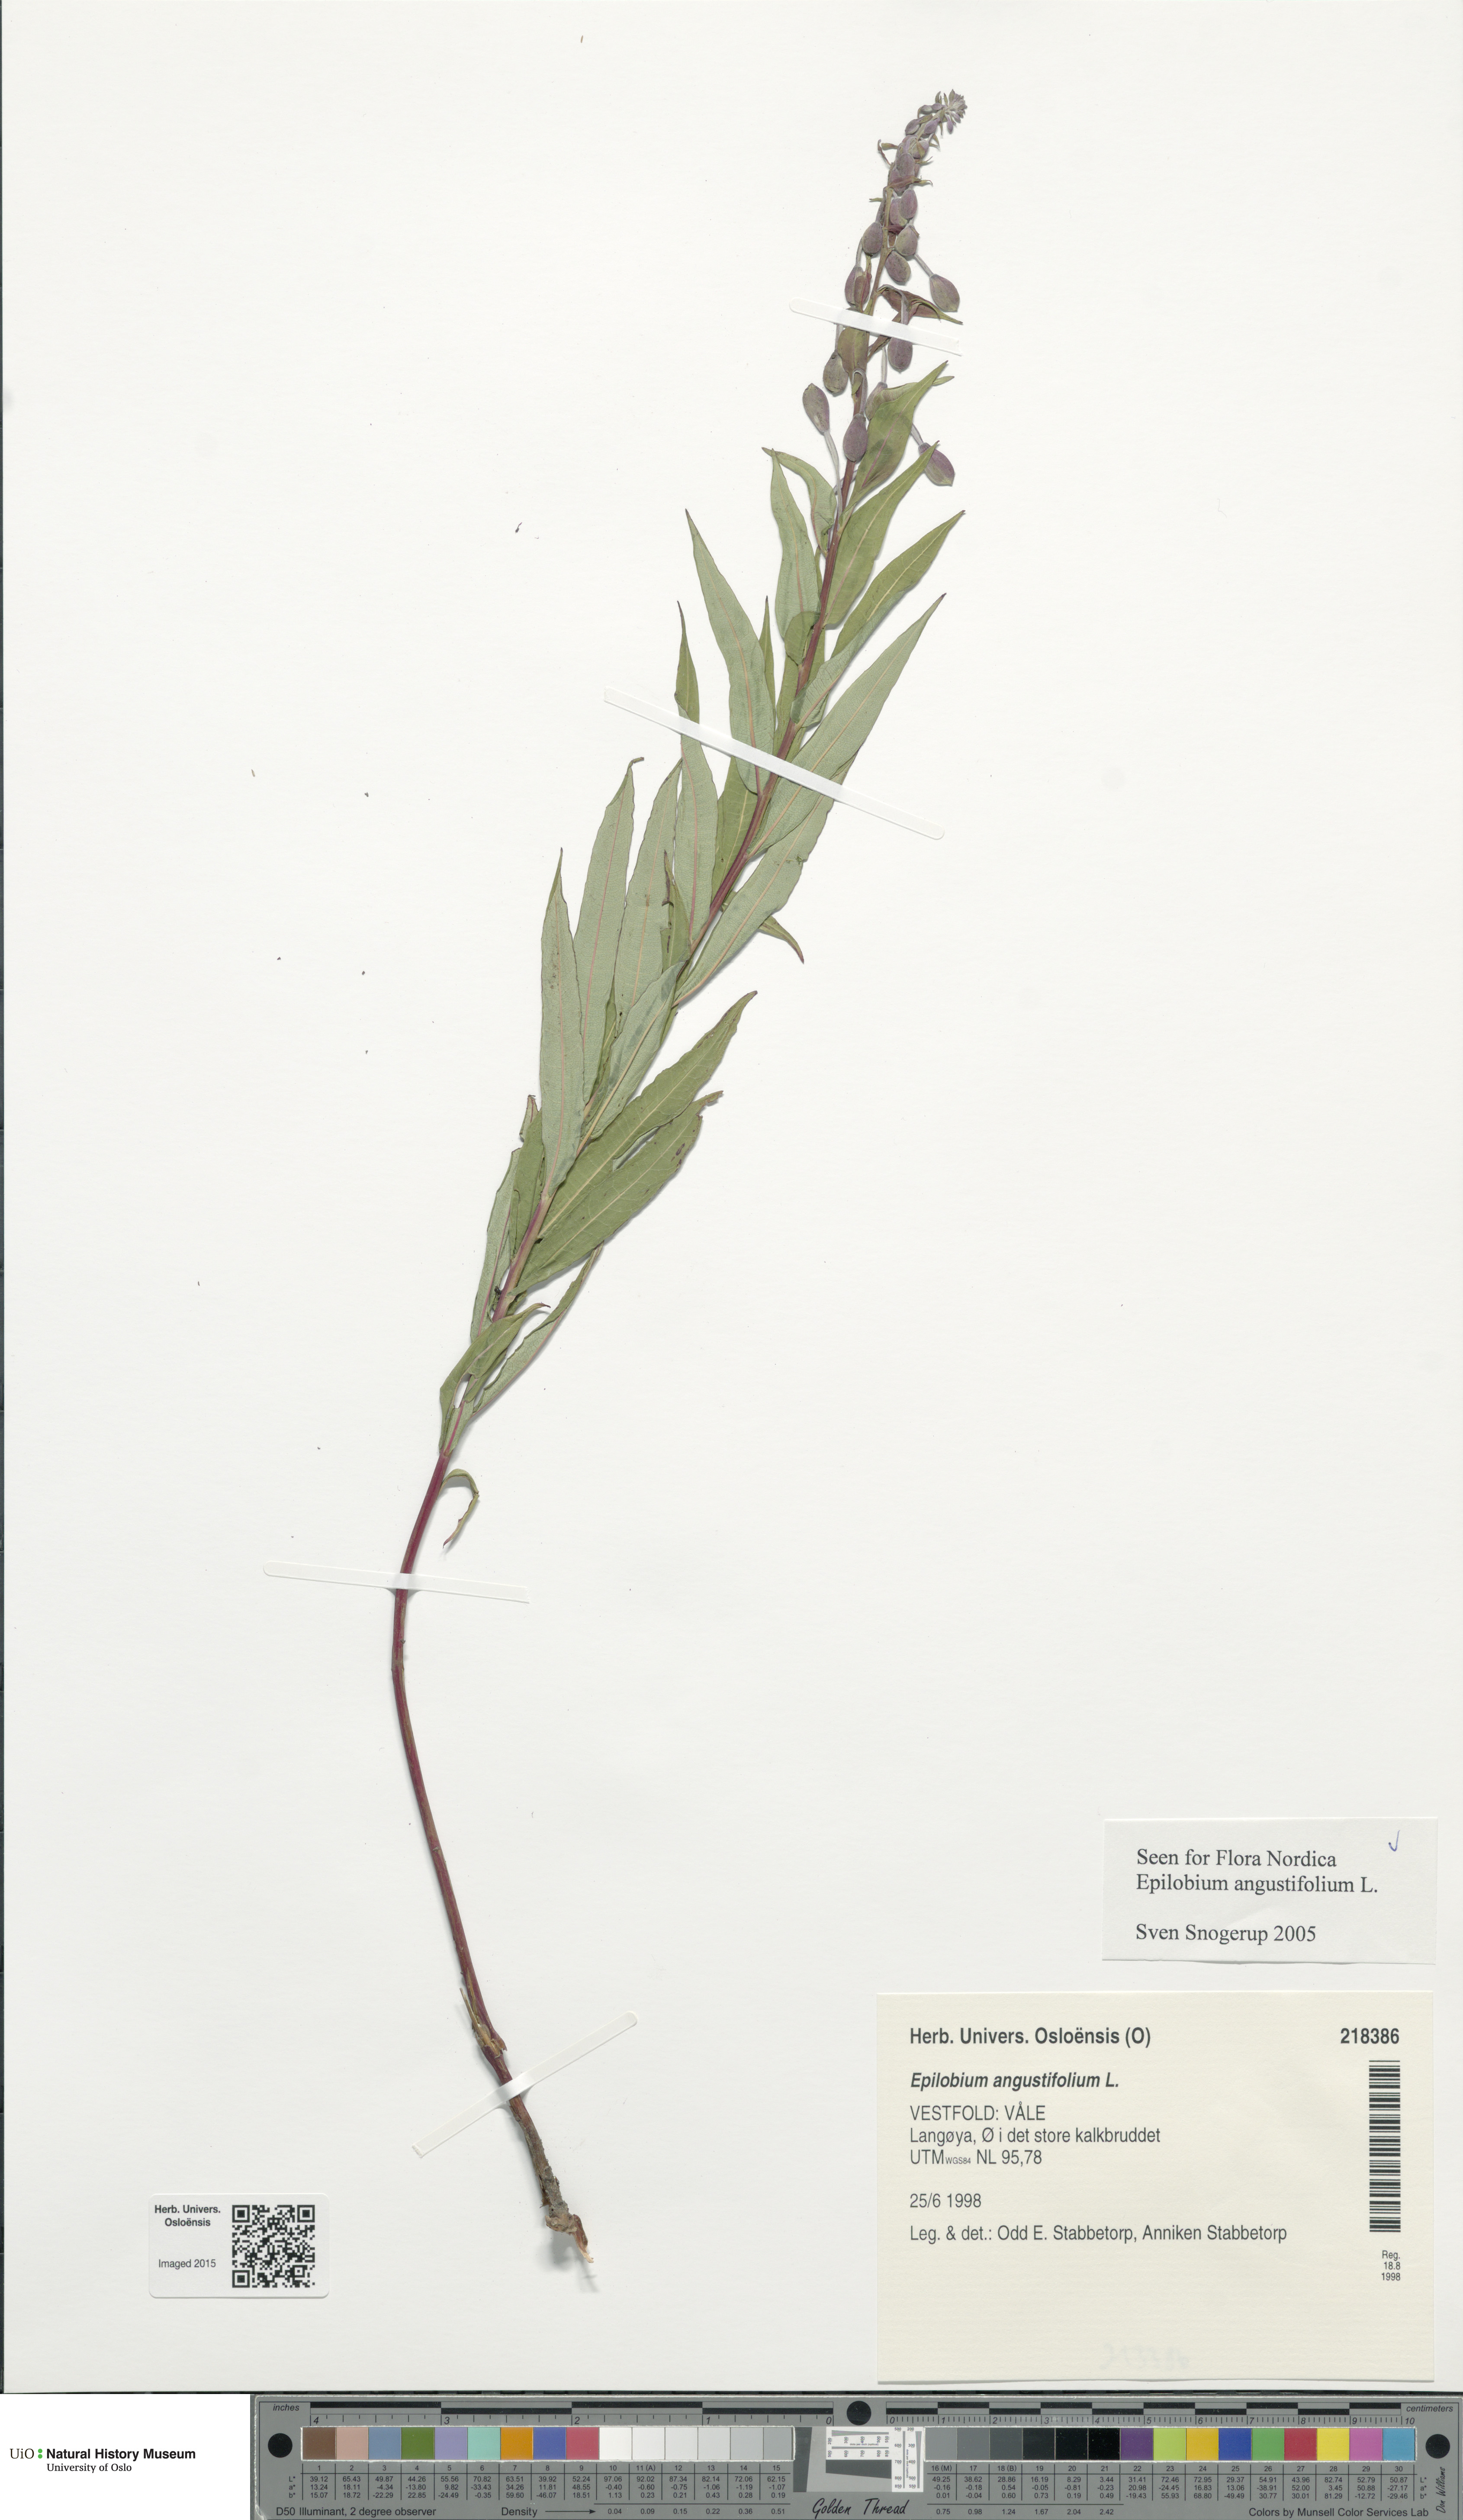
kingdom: Plantae
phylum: Tracheophyta
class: Magnoliopsida
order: Myrtales
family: Onagraceae
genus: Chamaenerion
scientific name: Chamaenerion angustifolium
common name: Fireweed
